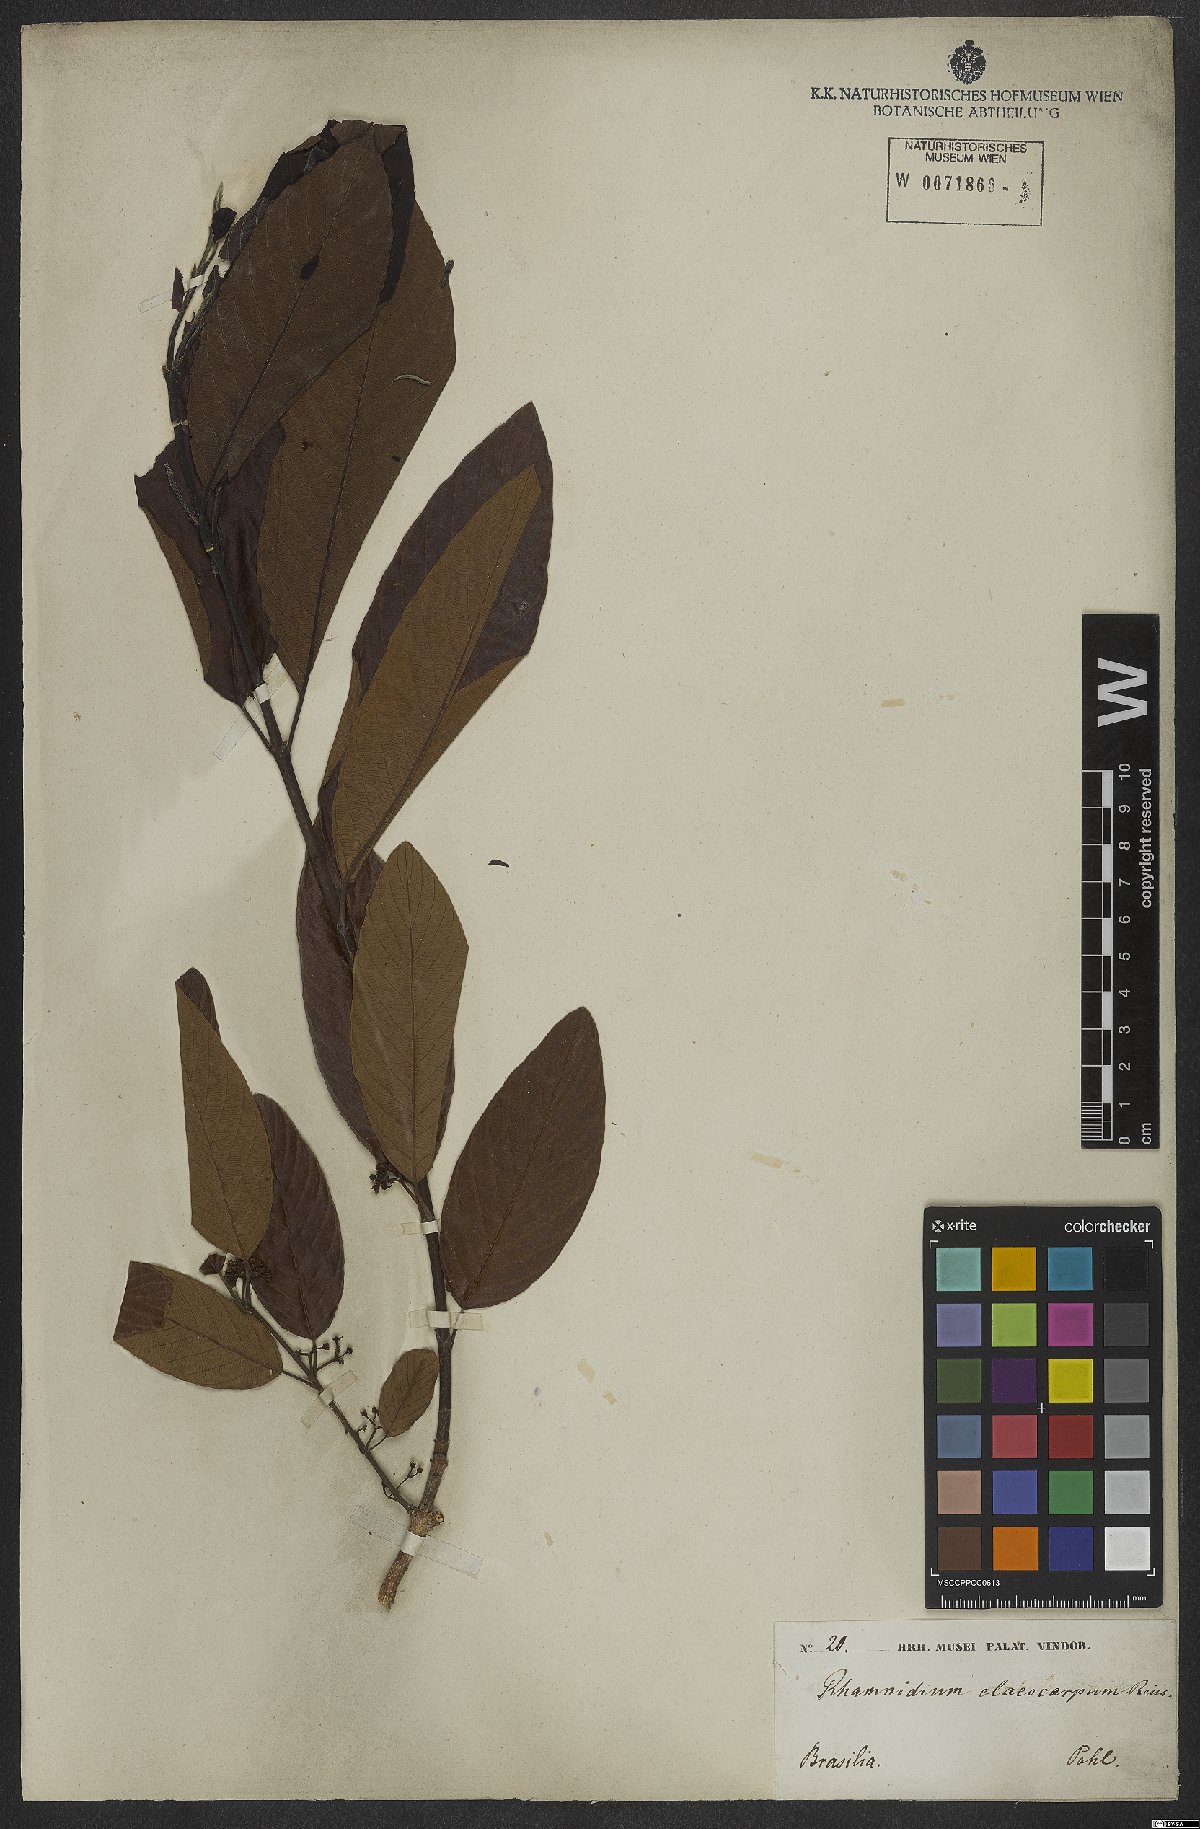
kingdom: Plantae
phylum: Tracheophyta
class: Magnoliopsida
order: Rosales
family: Rhamnaceae
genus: Rhamnidium
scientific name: Rhamnidium elaeocarpum
